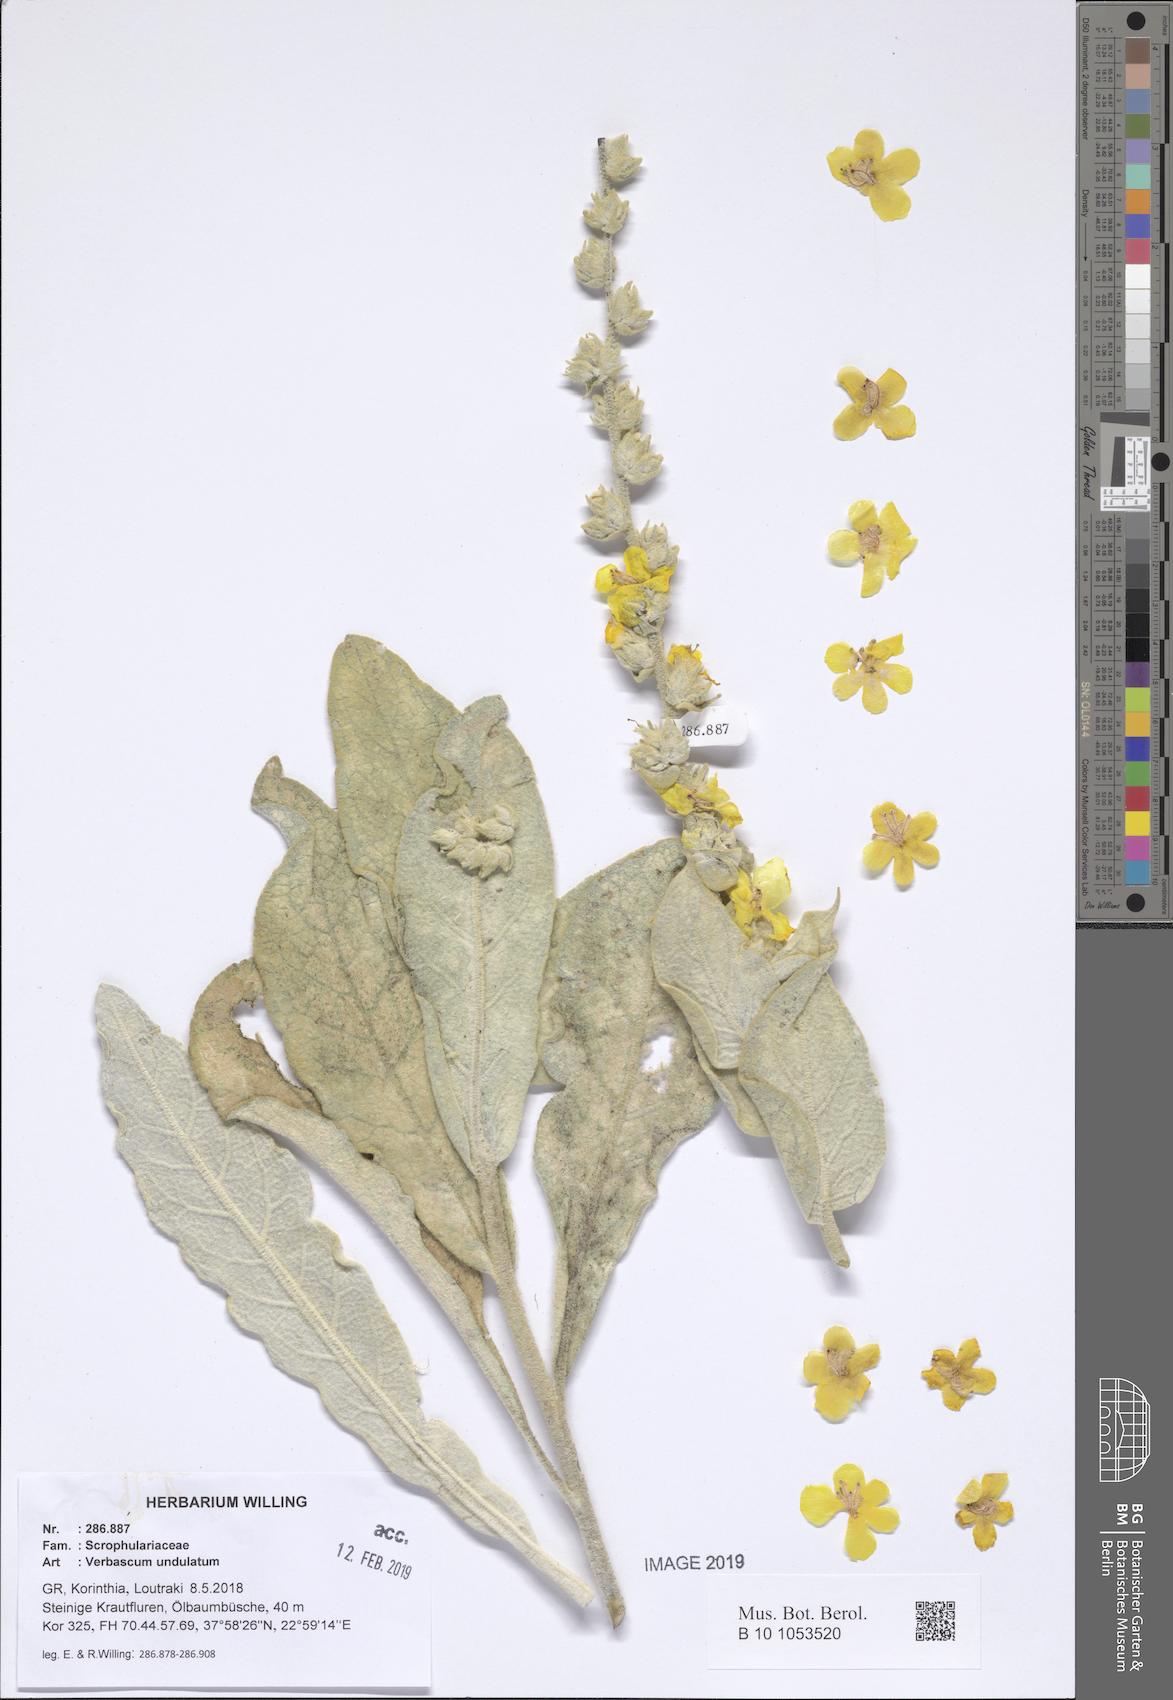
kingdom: Plantae
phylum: Tracheophyta
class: Magnoliopsida
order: Lamiales
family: Scrophulariaceae
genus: Verbascum
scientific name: Verbascum undulatum
